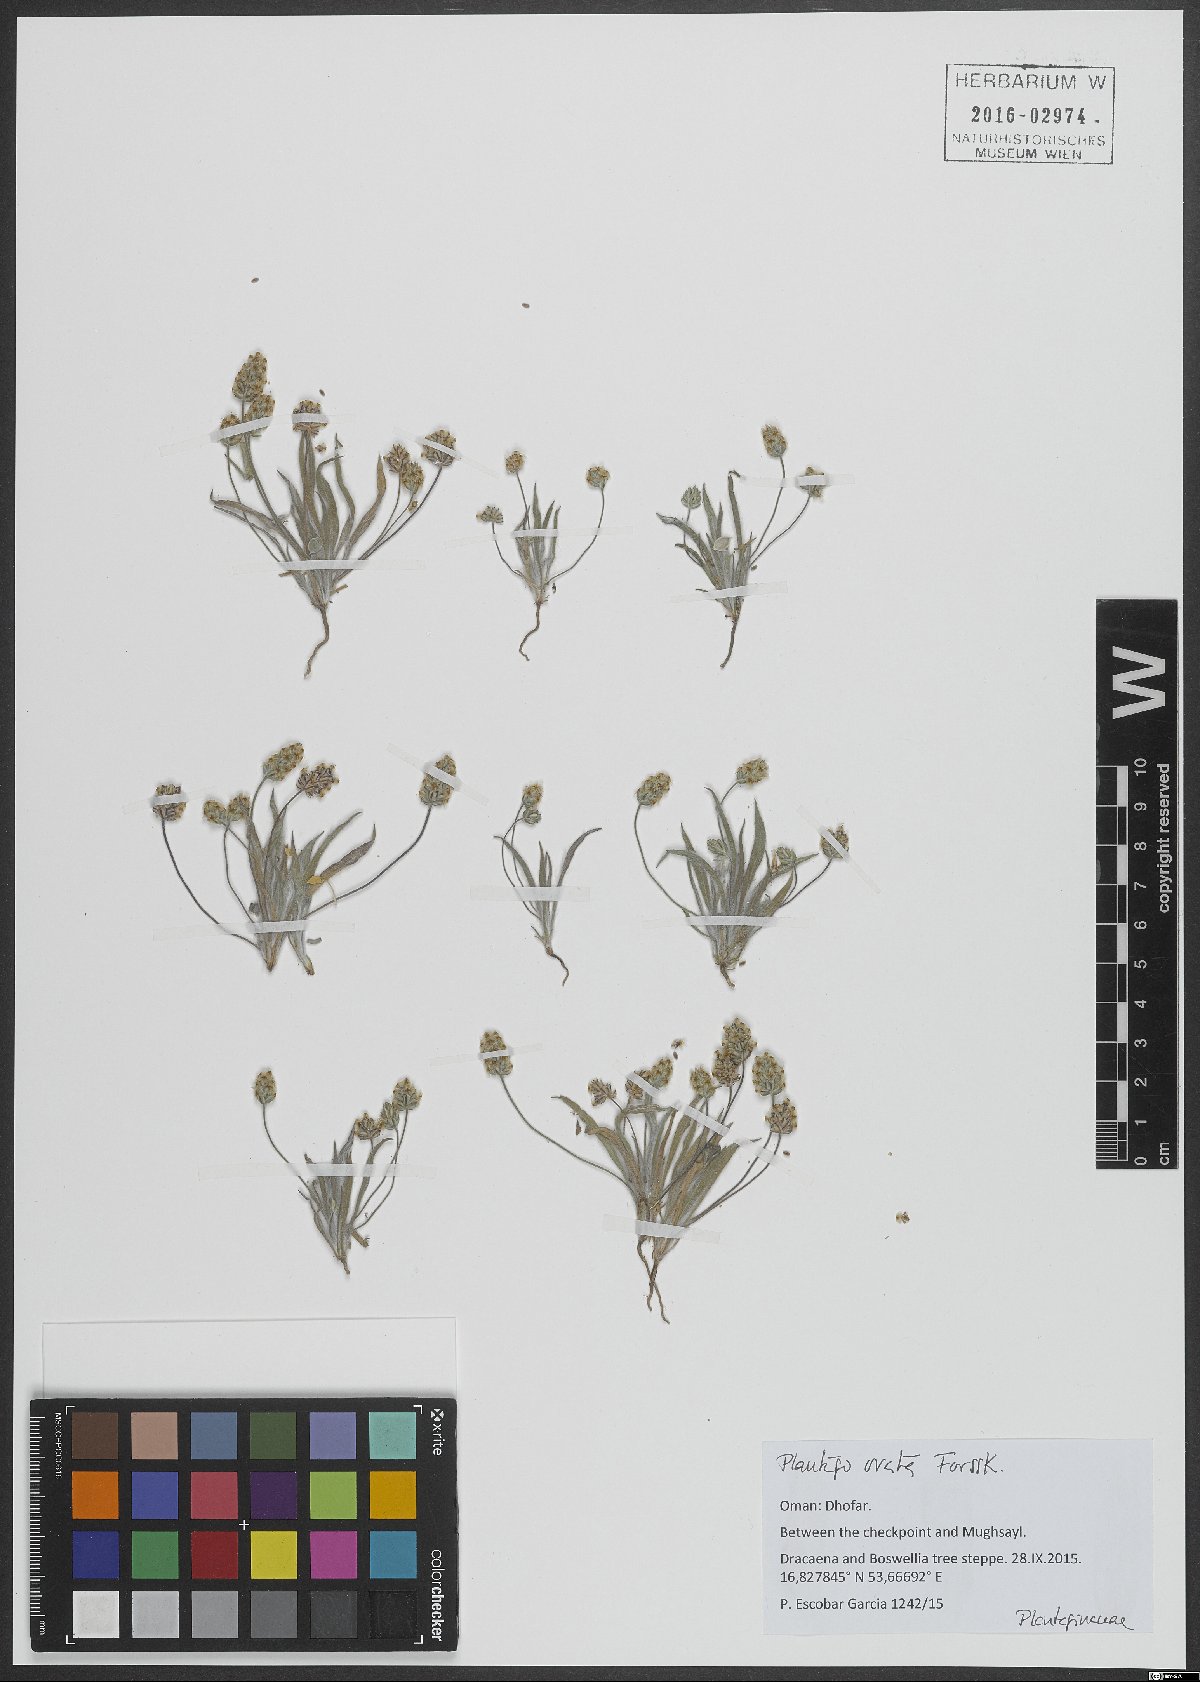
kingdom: Plantae
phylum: Tracheophyta
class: Magnoliopsida
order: Lamiales
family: Plantaginaceae
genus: Plantago
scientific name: Plantago ovata
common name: Blond plantain
